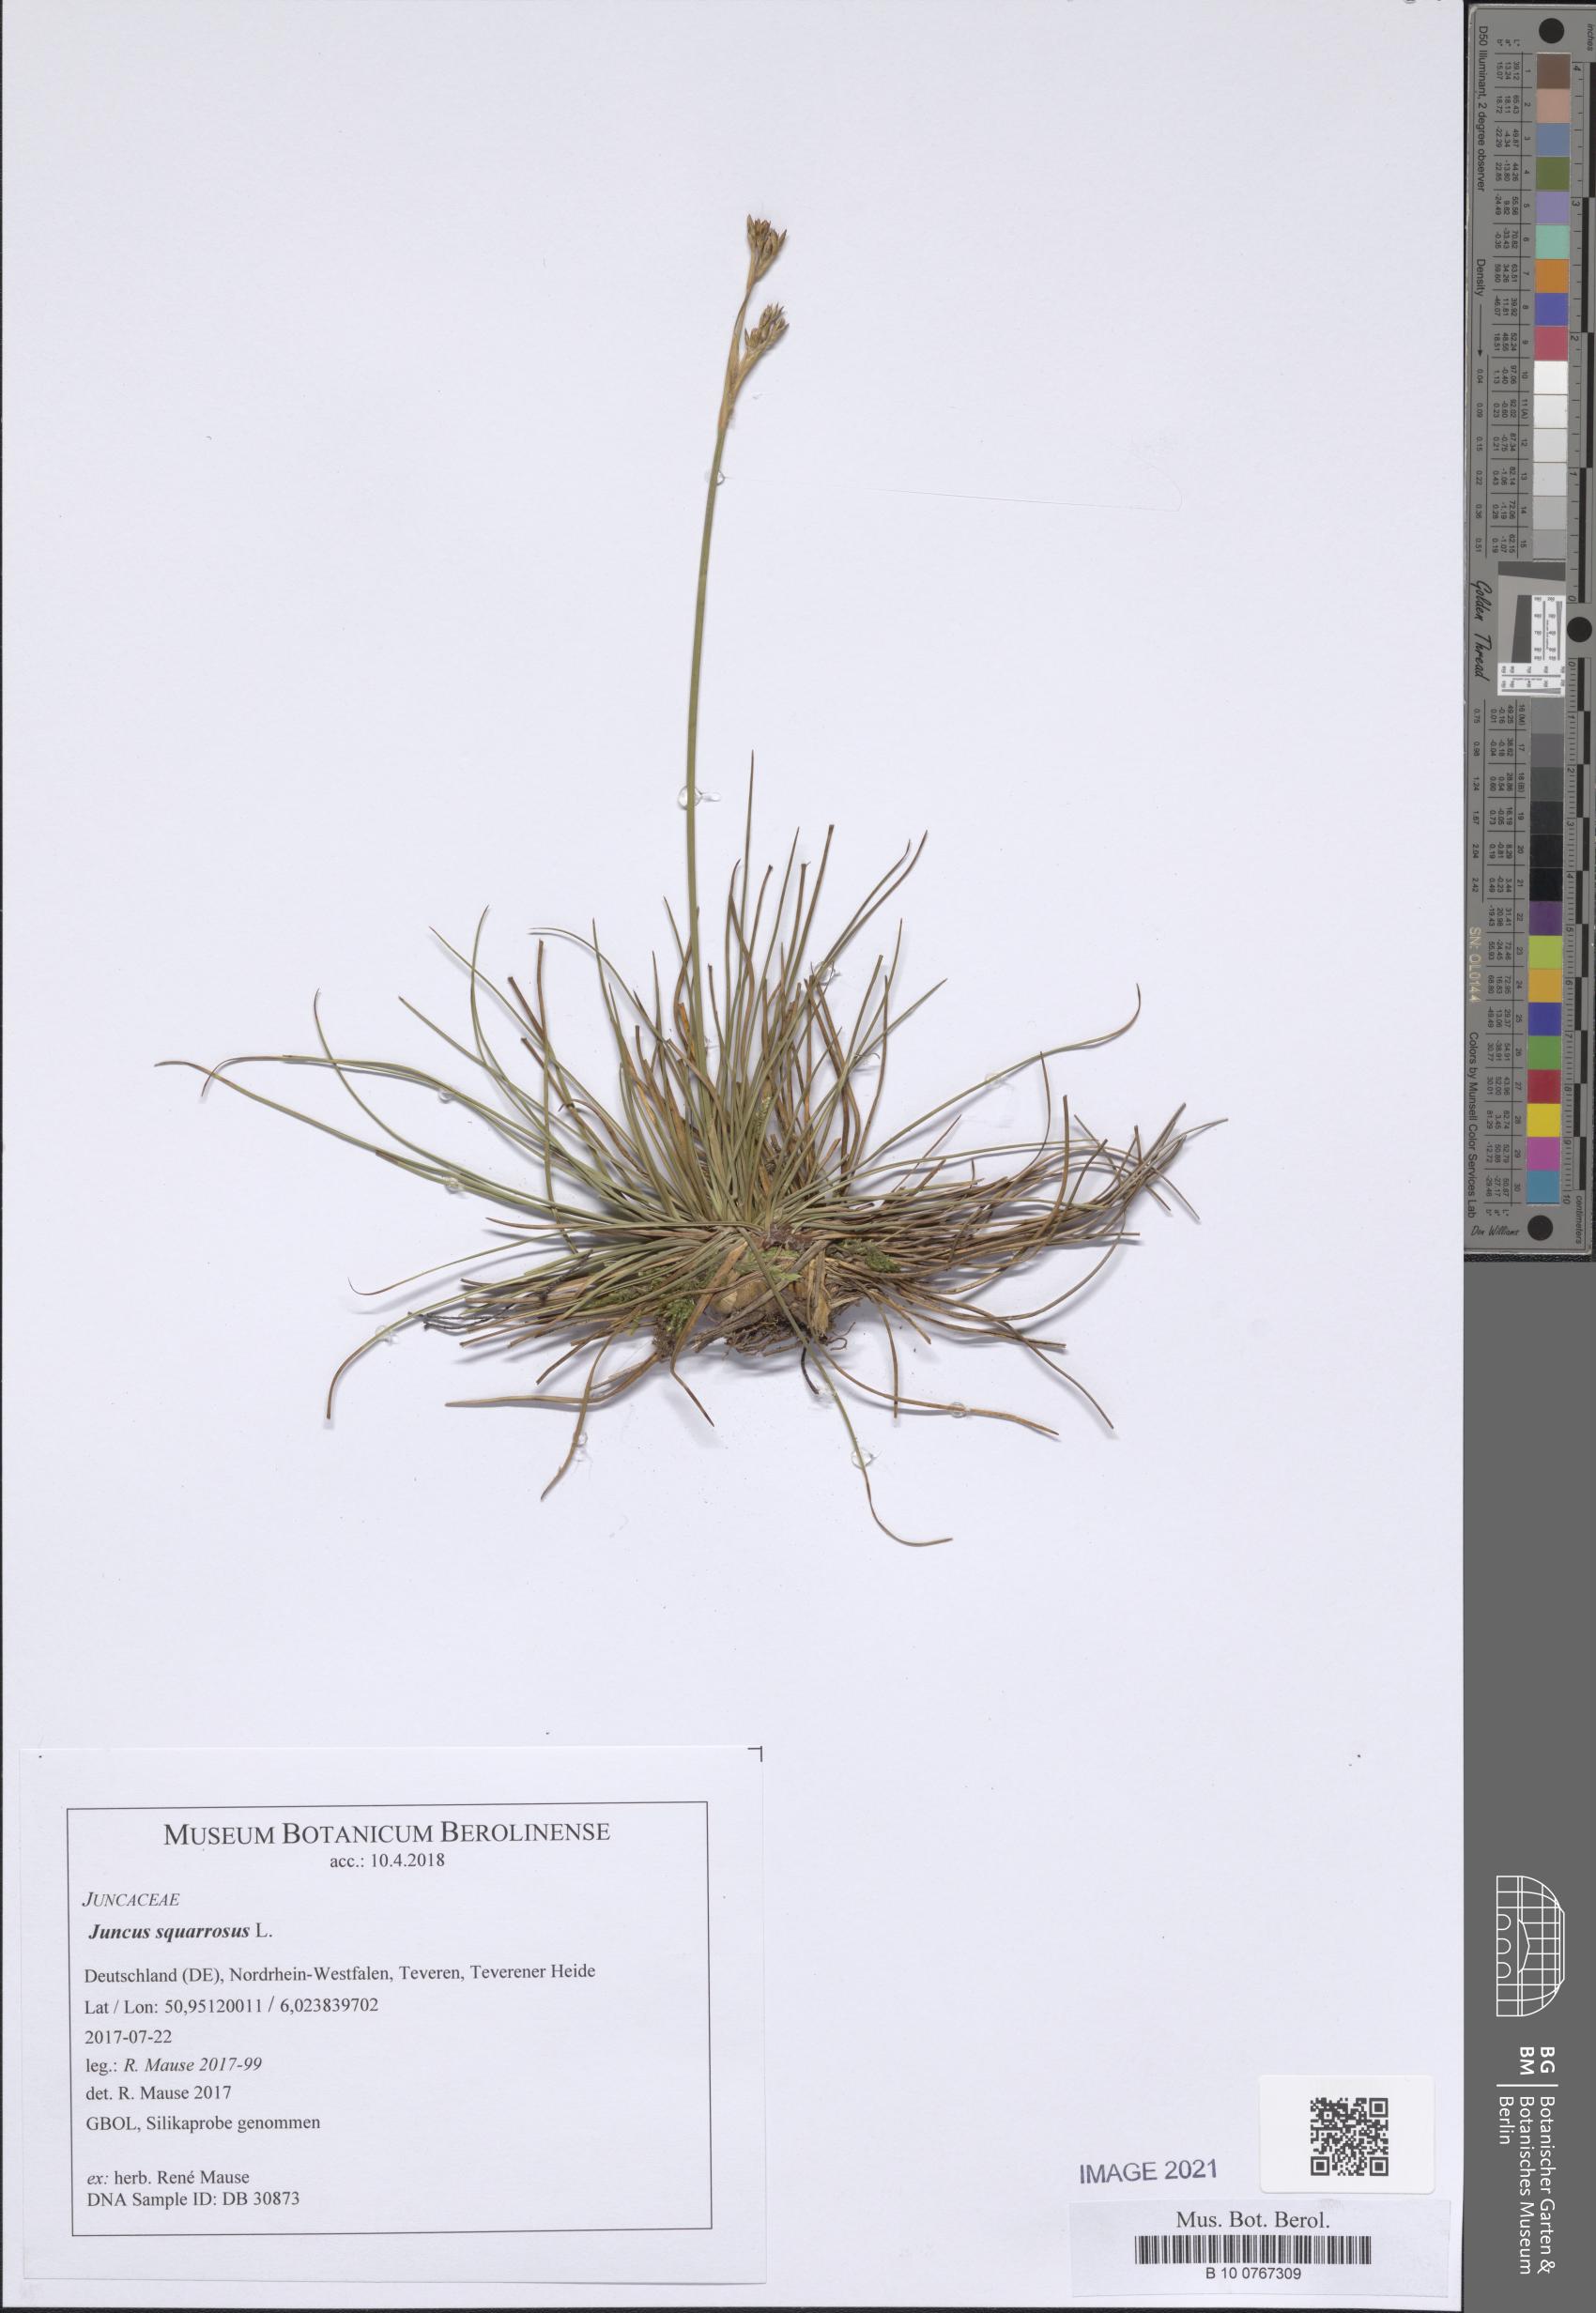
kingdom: Plantae
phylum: Tracheophyta
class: Liliopsida
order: Poales
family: Juncaceae
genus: Juncus
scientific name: Juncus squarrosus
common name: Heath rush
